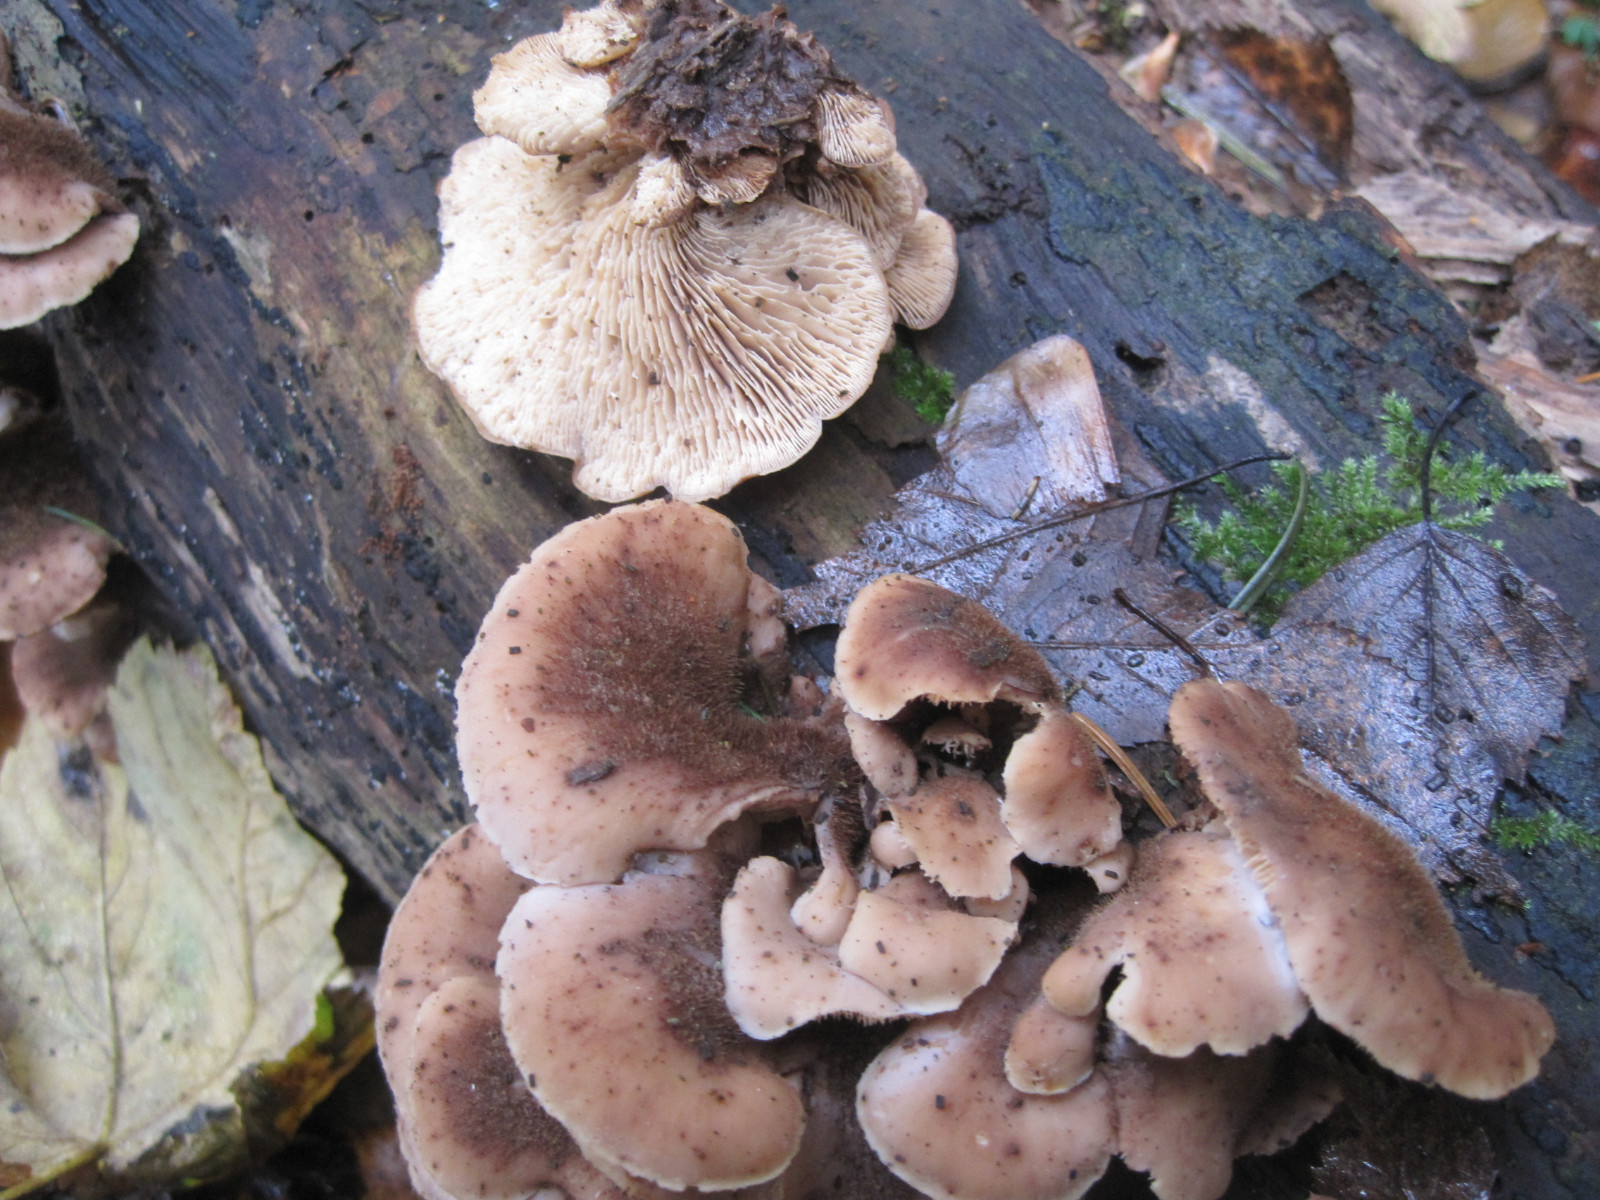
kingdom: Fungi
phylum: Basidiomycota
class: Agaricomycetes
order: Russulales
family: Auriscalpiaceae
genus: Lentinellus
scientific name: Lentinellus ursinus
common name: børstehåret savbladhat
